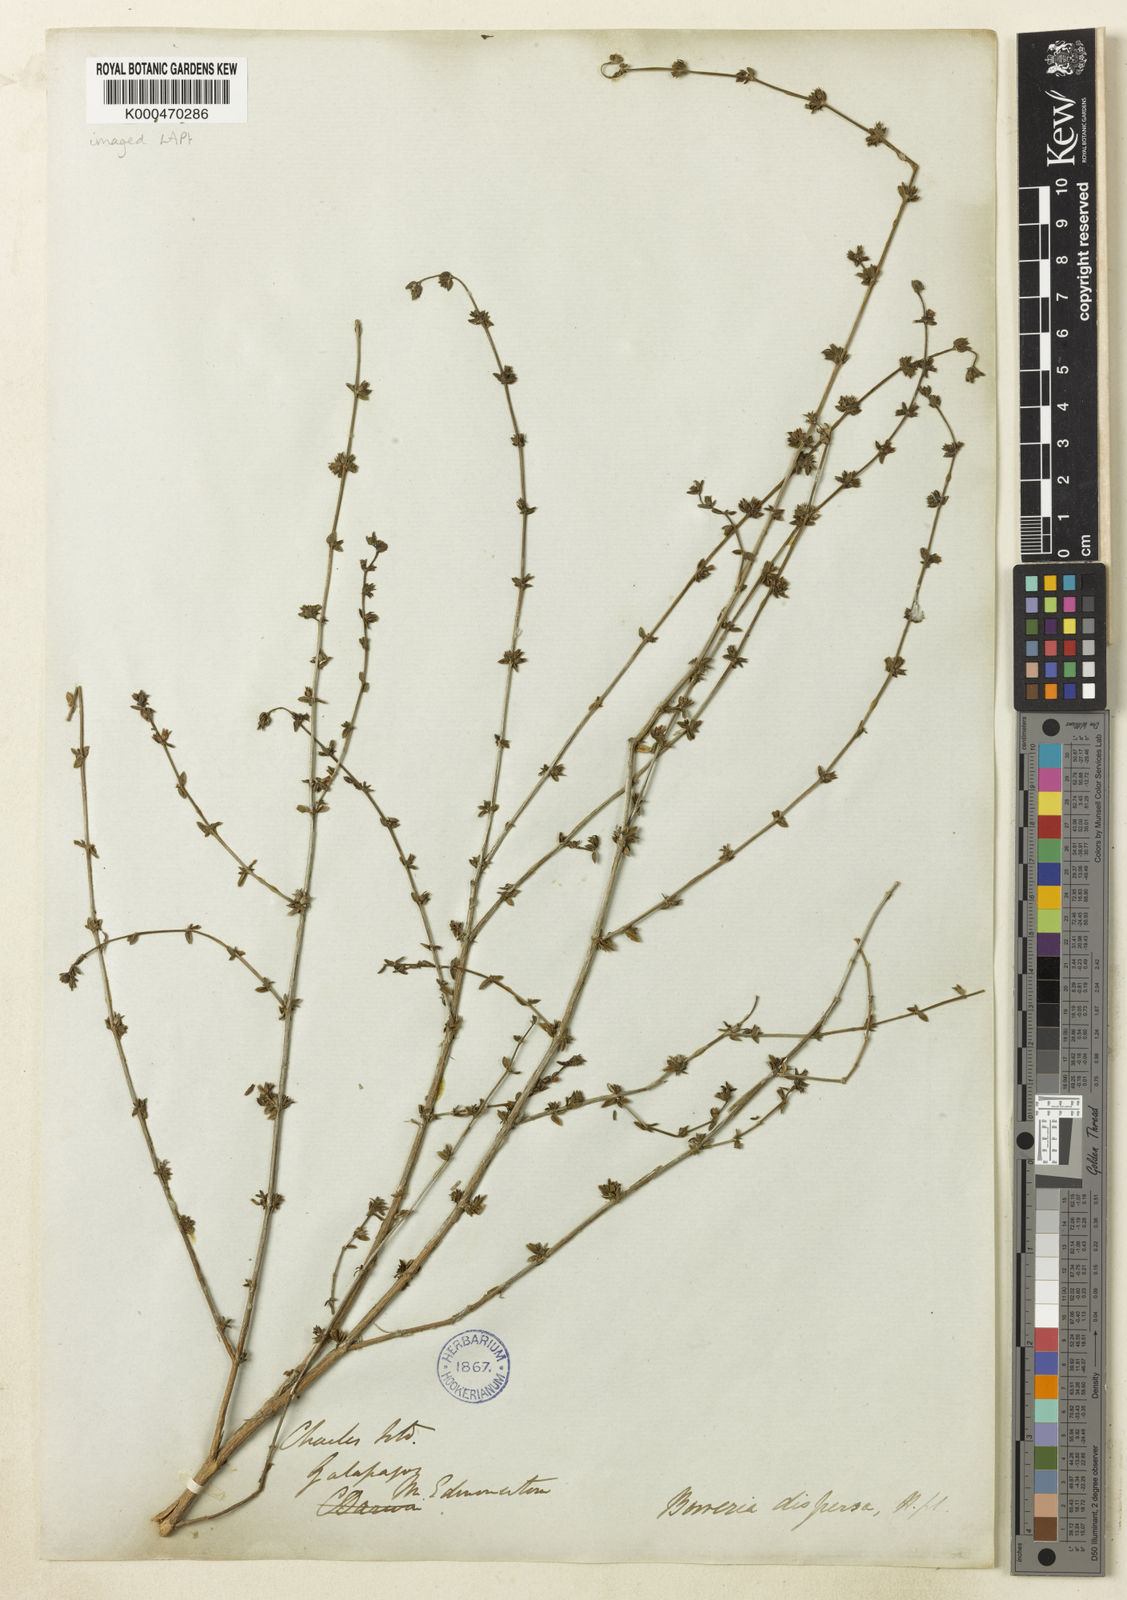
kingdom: Plantae
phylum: Tracheophyta
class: Magnoliopsida
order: Gentianales
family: Rubiaceae
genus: Spermacoce
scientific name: Spermacoce dispersa
